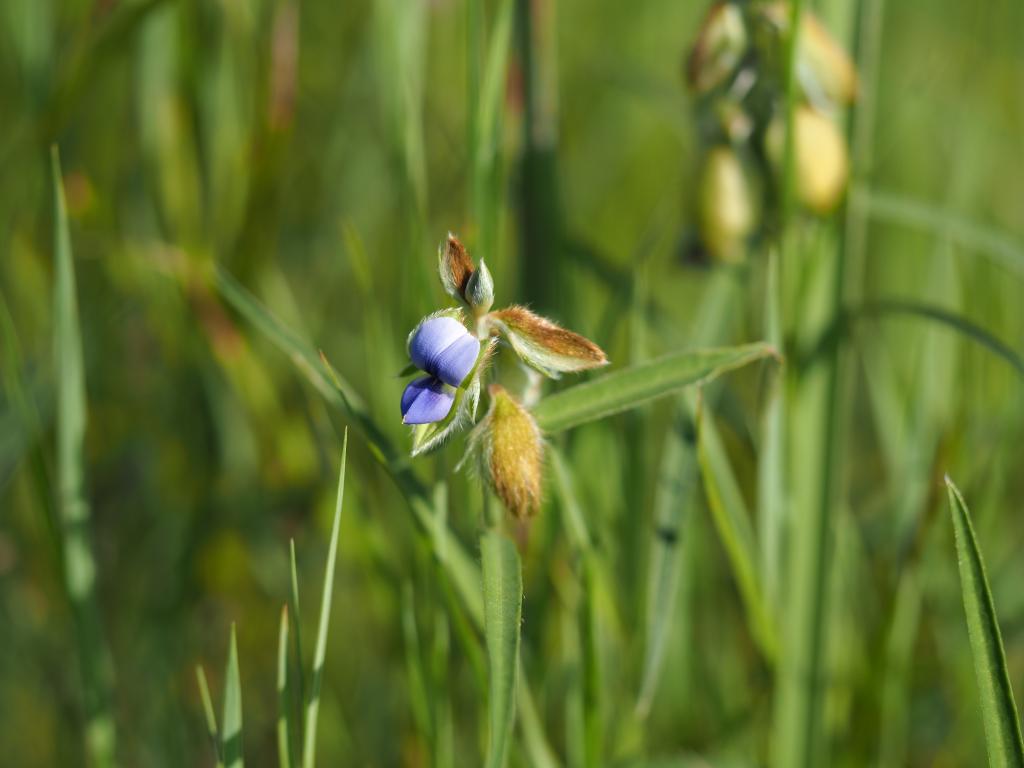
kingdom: Plantae
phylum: Tracheophyta
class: Magnoliopsida
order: Fabales
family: Fabaceae
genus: Crotalaria
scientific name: Crotalaria sessiliflora
